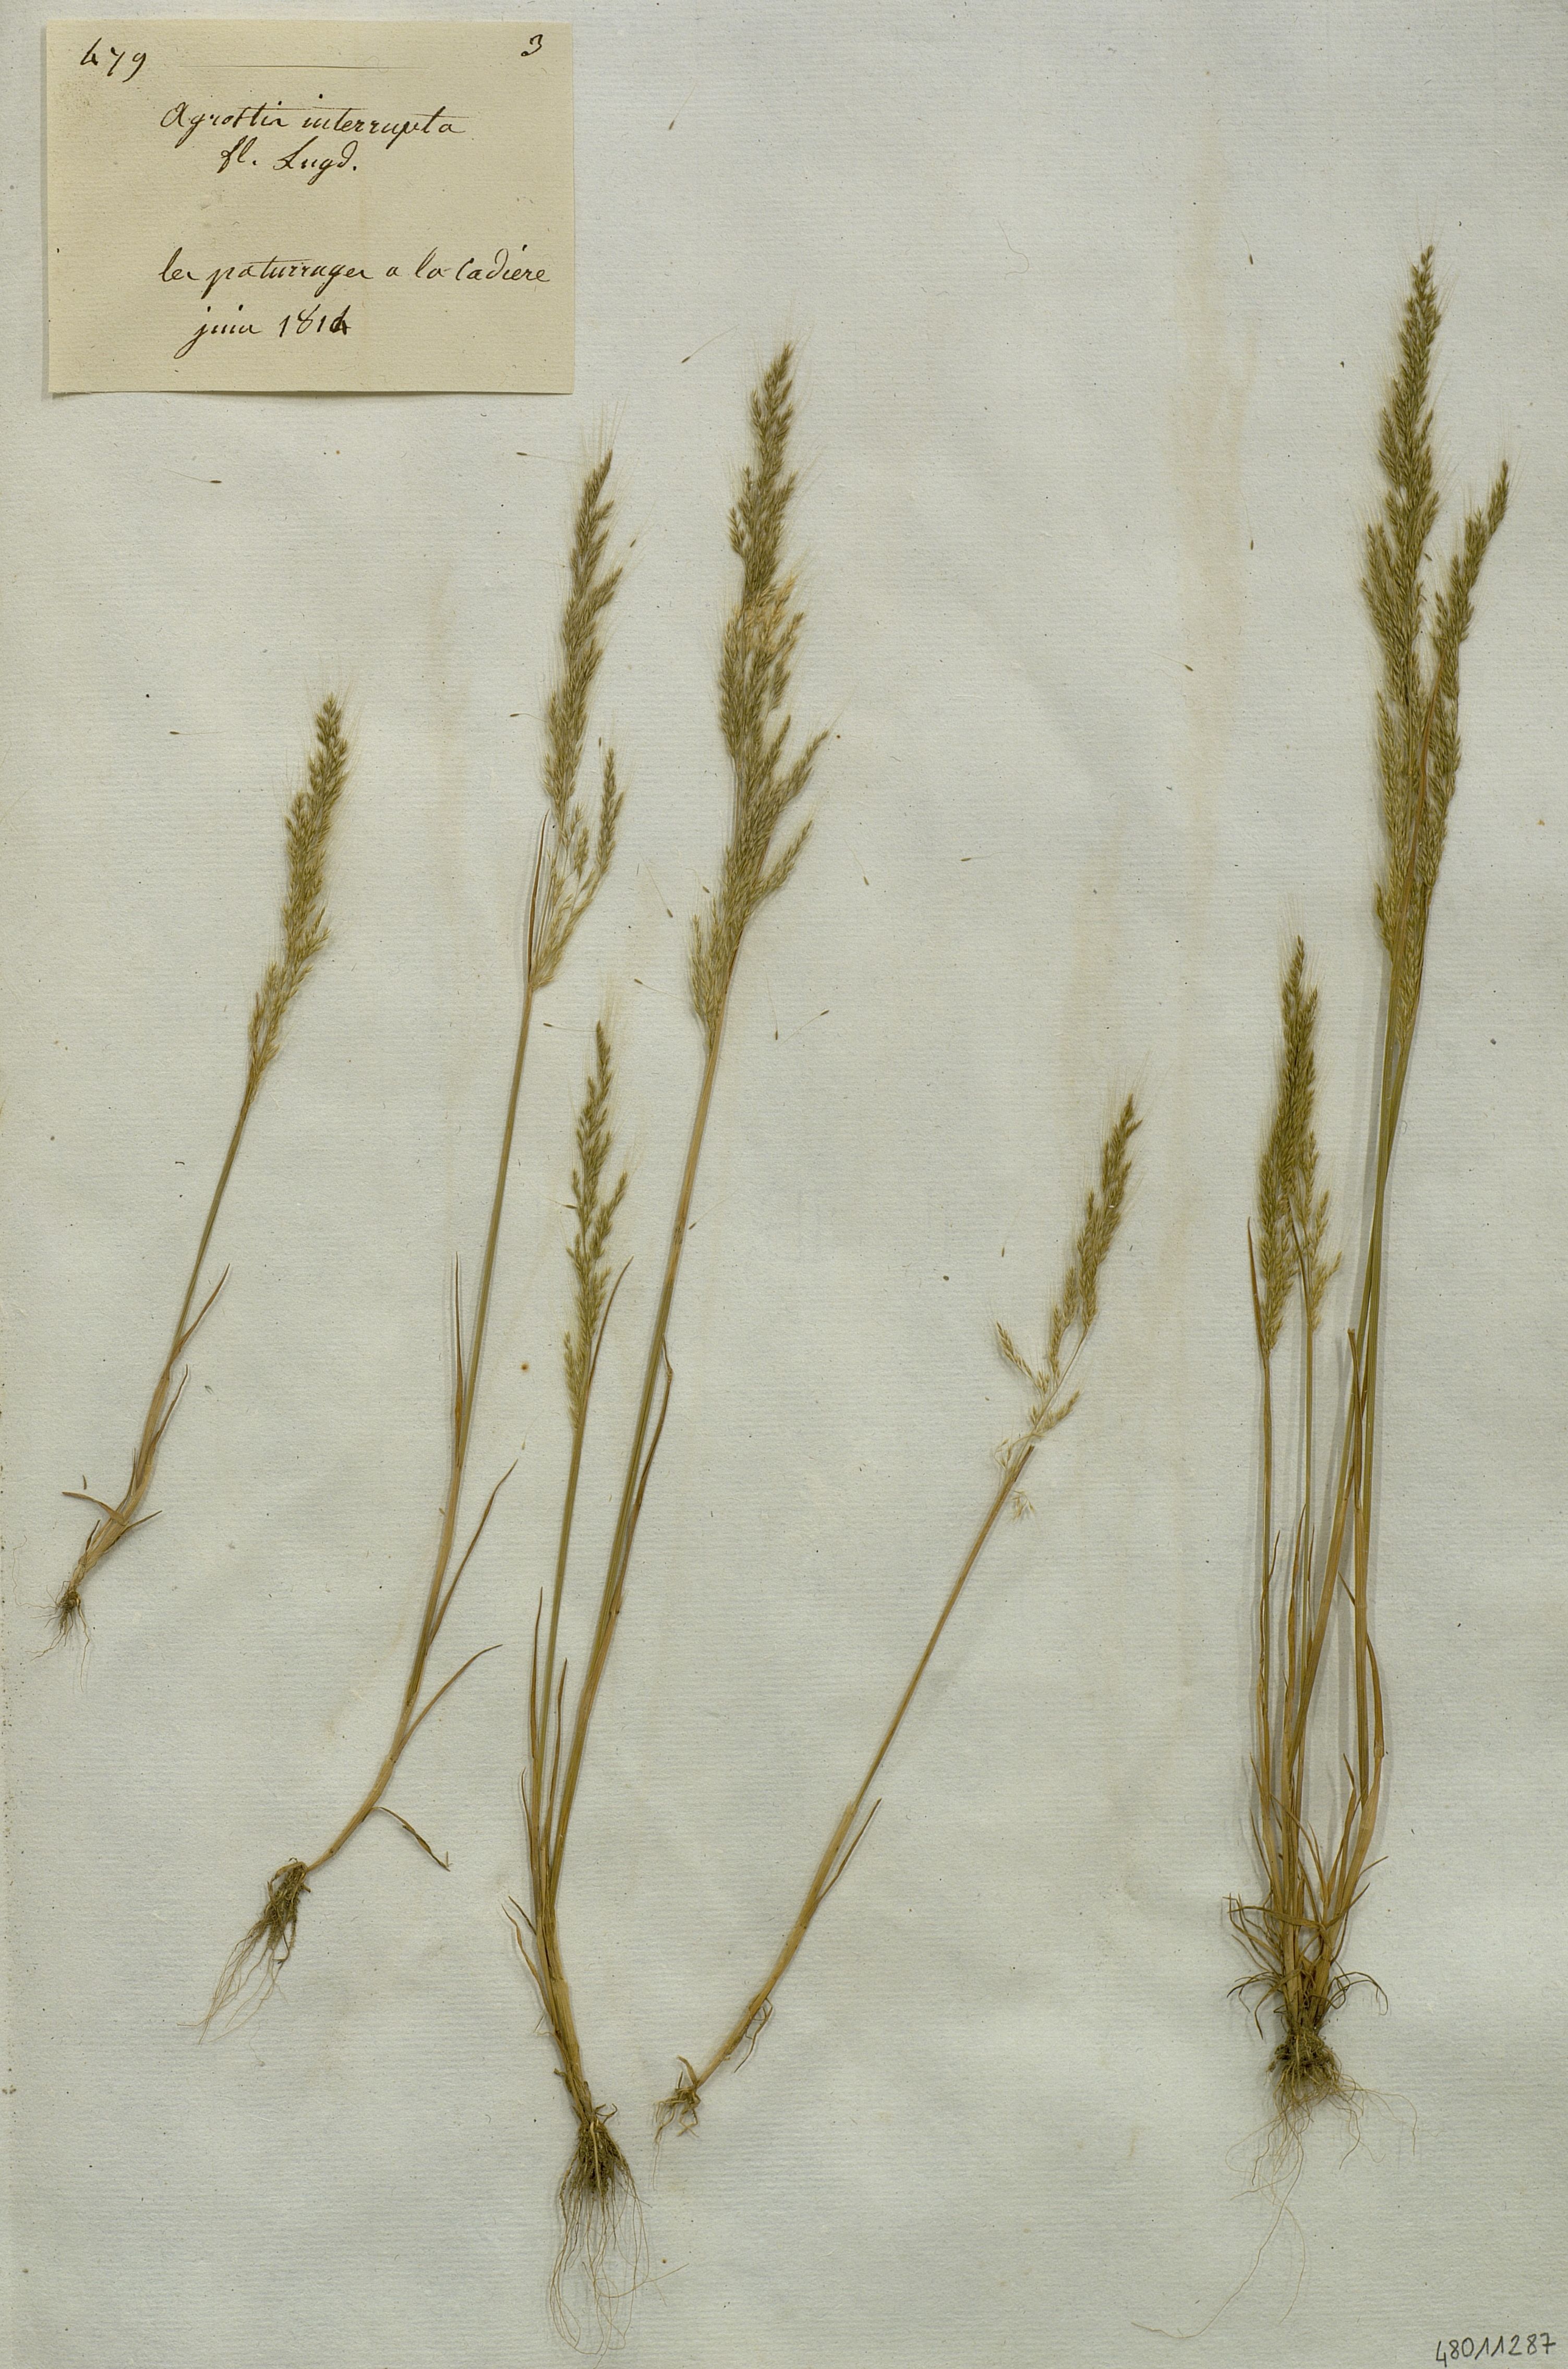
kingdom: Plantae
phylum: Tracheophyta
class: Liliopsida
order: Poales
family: Poaceae
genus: Apera
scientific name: Apera interrupta
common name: Dense silky-bent
